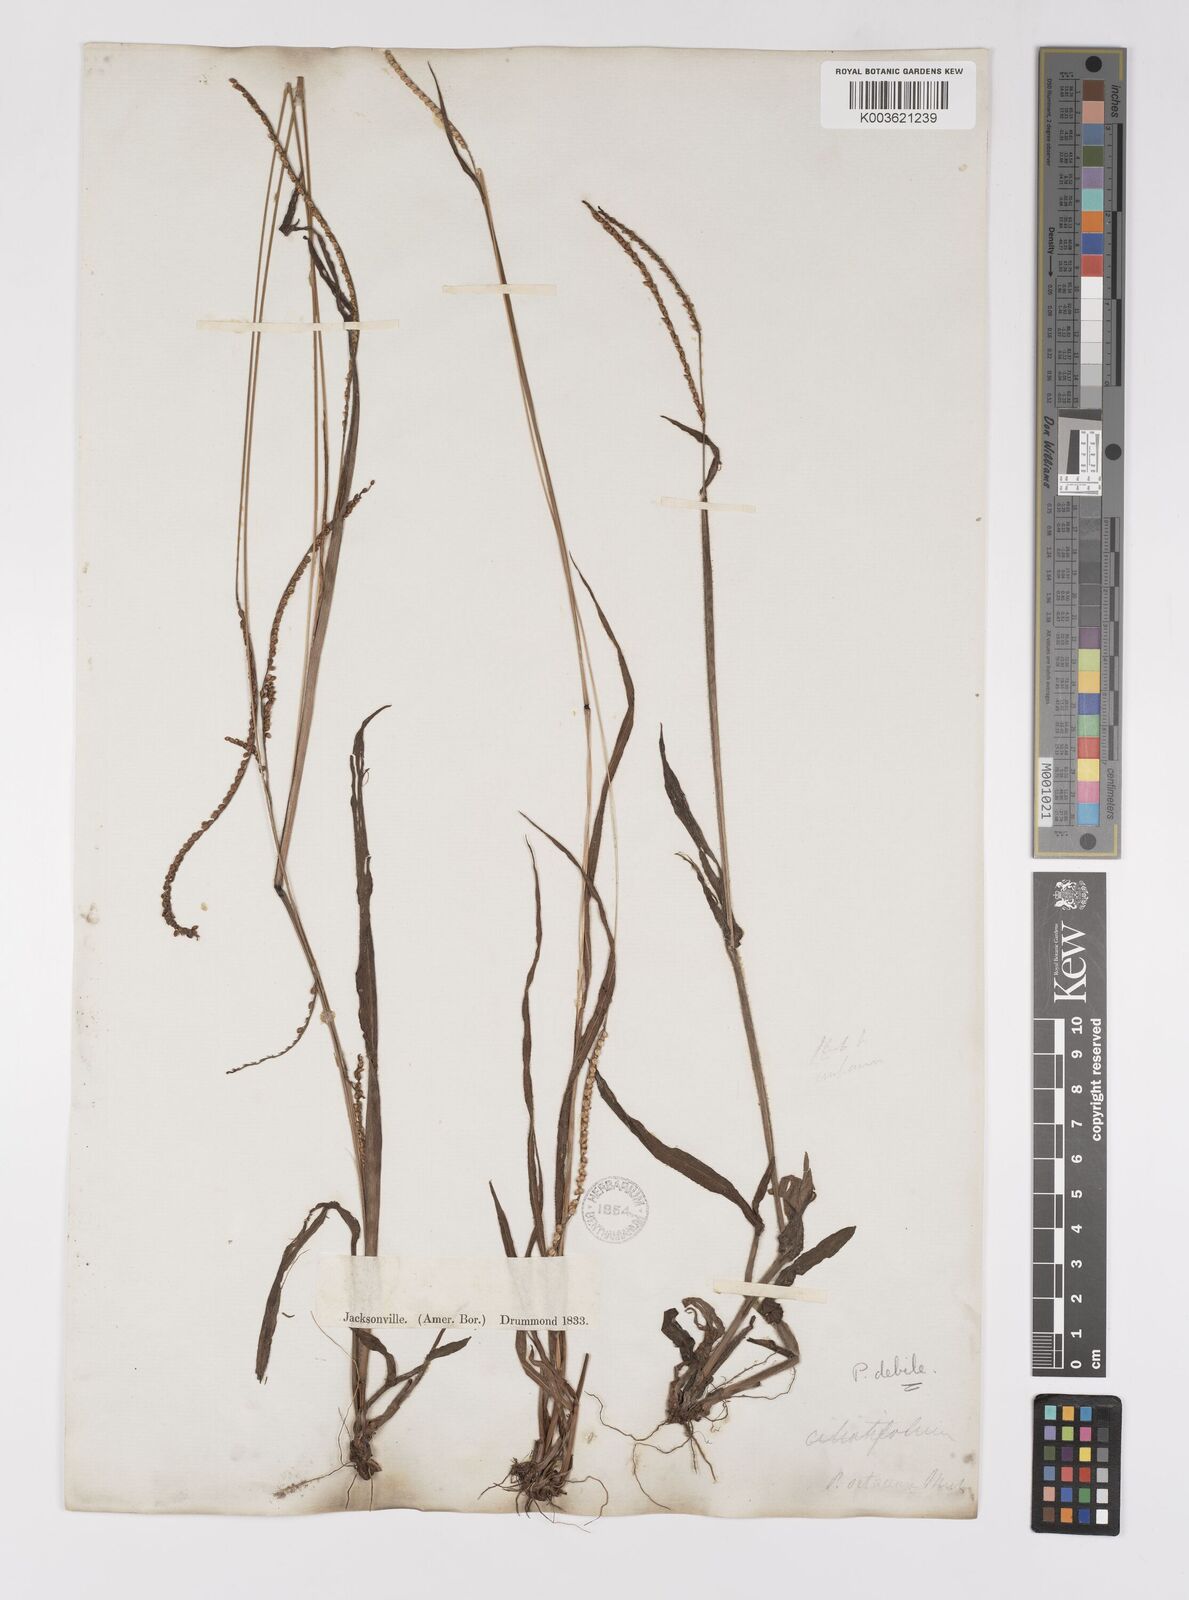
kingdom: Plantae
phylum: Tracheophyta
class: Liliopsida
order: Poales
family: Poaceae
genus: Paspalum
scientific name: Paspalum setaceum
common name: Slender paspalum
